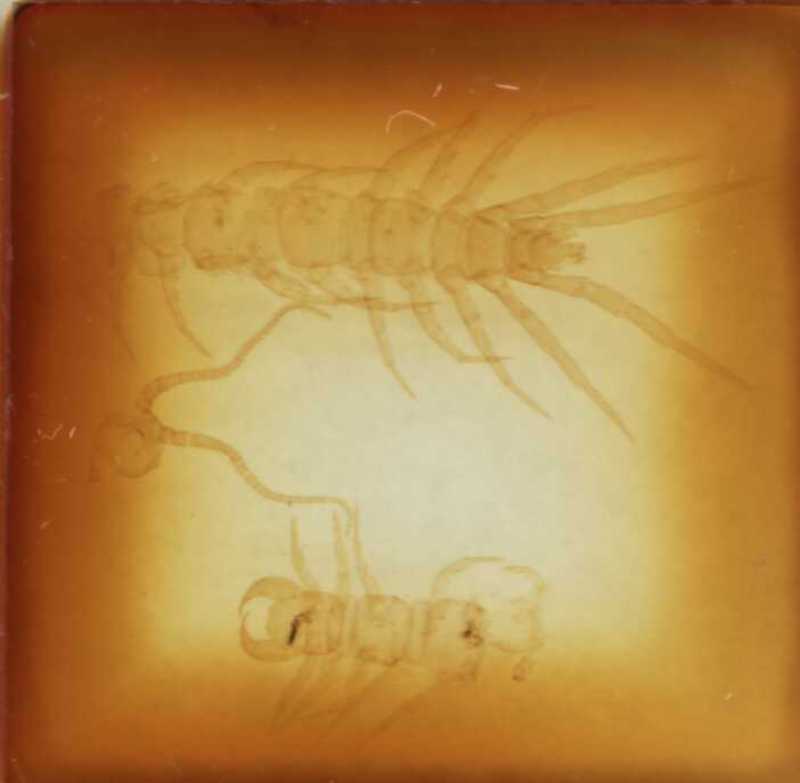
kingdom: Animalia
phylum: Arthropoda
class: Chilopoda
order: Lithobiomorpha
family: Lithobiidae
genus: Harpolithobius
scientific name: Harpolithobius ljubetensis
